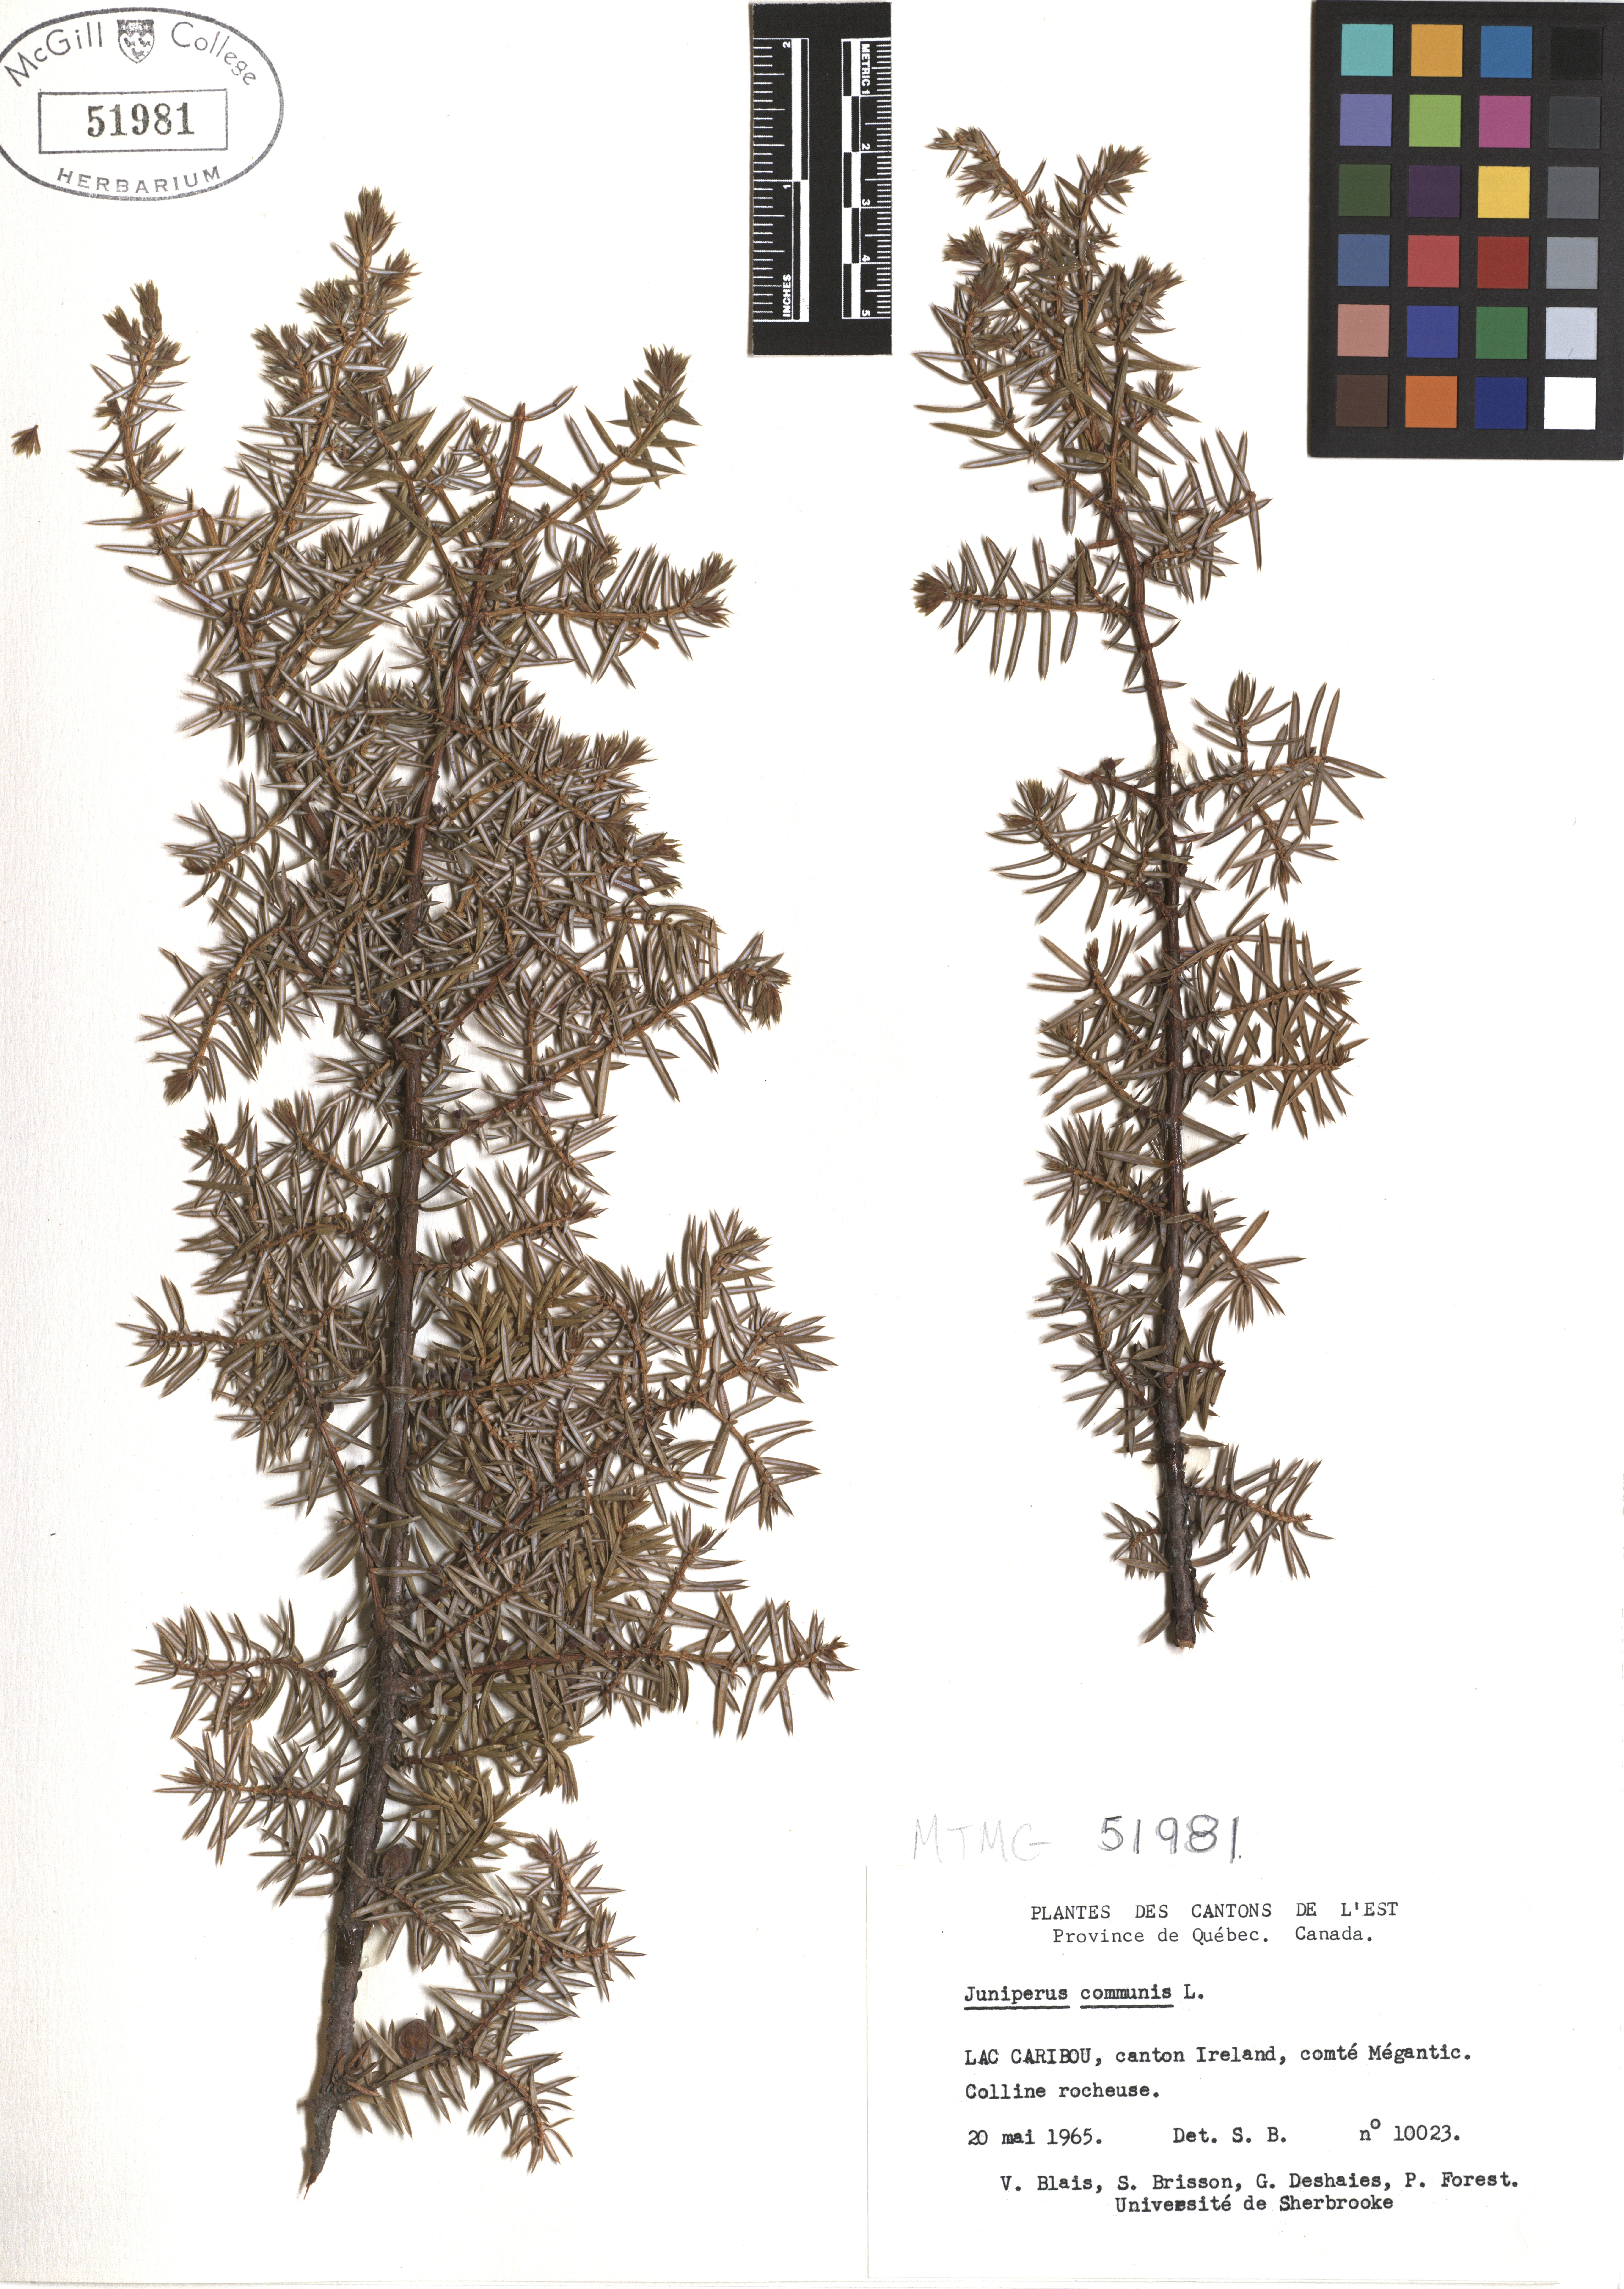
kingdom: Plantae
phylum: Tracheophyta
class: Pinopsida
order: Pinales
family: Cupressaceae
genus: Juniperus
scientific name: Juniperus communis
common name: Common juniper
